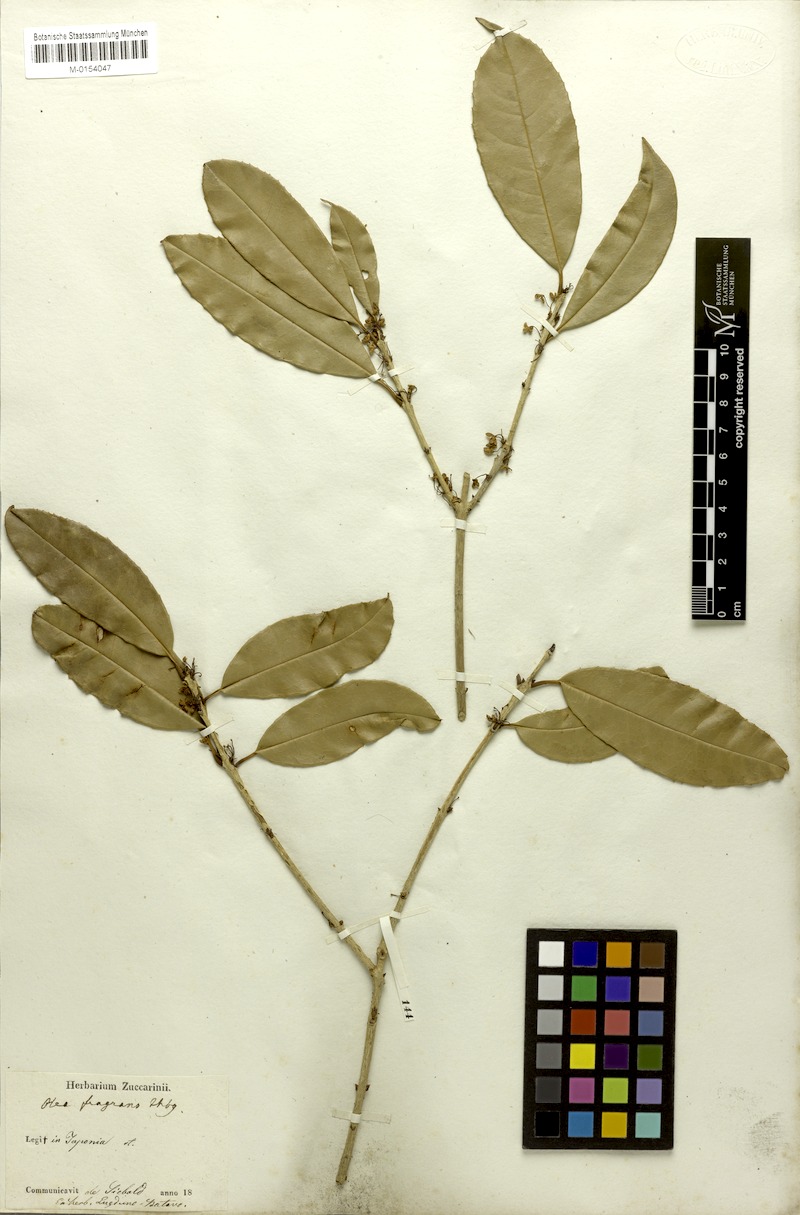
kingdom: Plantae
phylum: Tracheophyta
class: Magnoliopsida
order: Lamiales
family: Oleaceae
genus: Osmanthus
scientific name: Osmanthus fragrans
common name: Sweet osmanthus
